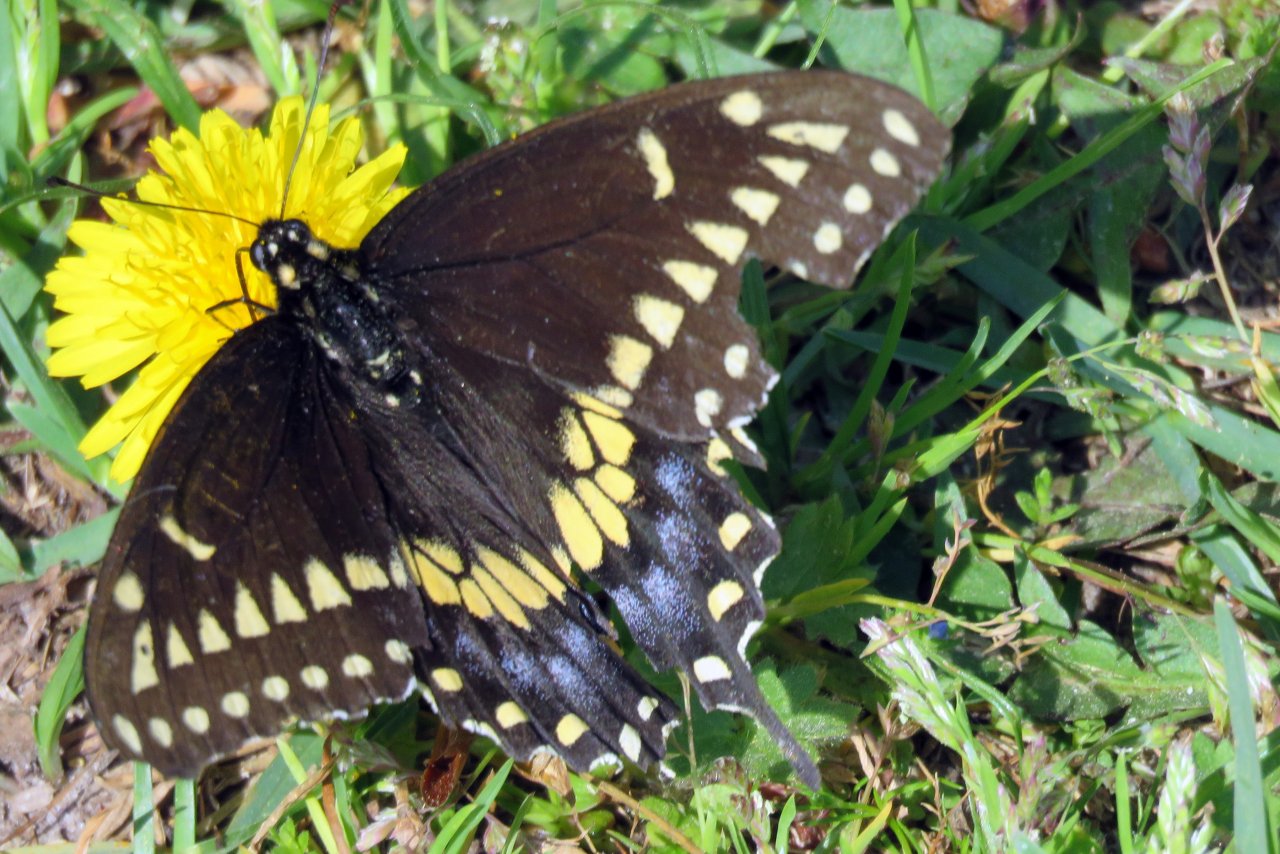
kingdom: Animalia
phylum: Arthropoda
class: Insecta
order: Lepidoptera
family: Papilionidae
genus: Papilio
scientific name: Papilio polyxenes
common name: Black Swallowtail
